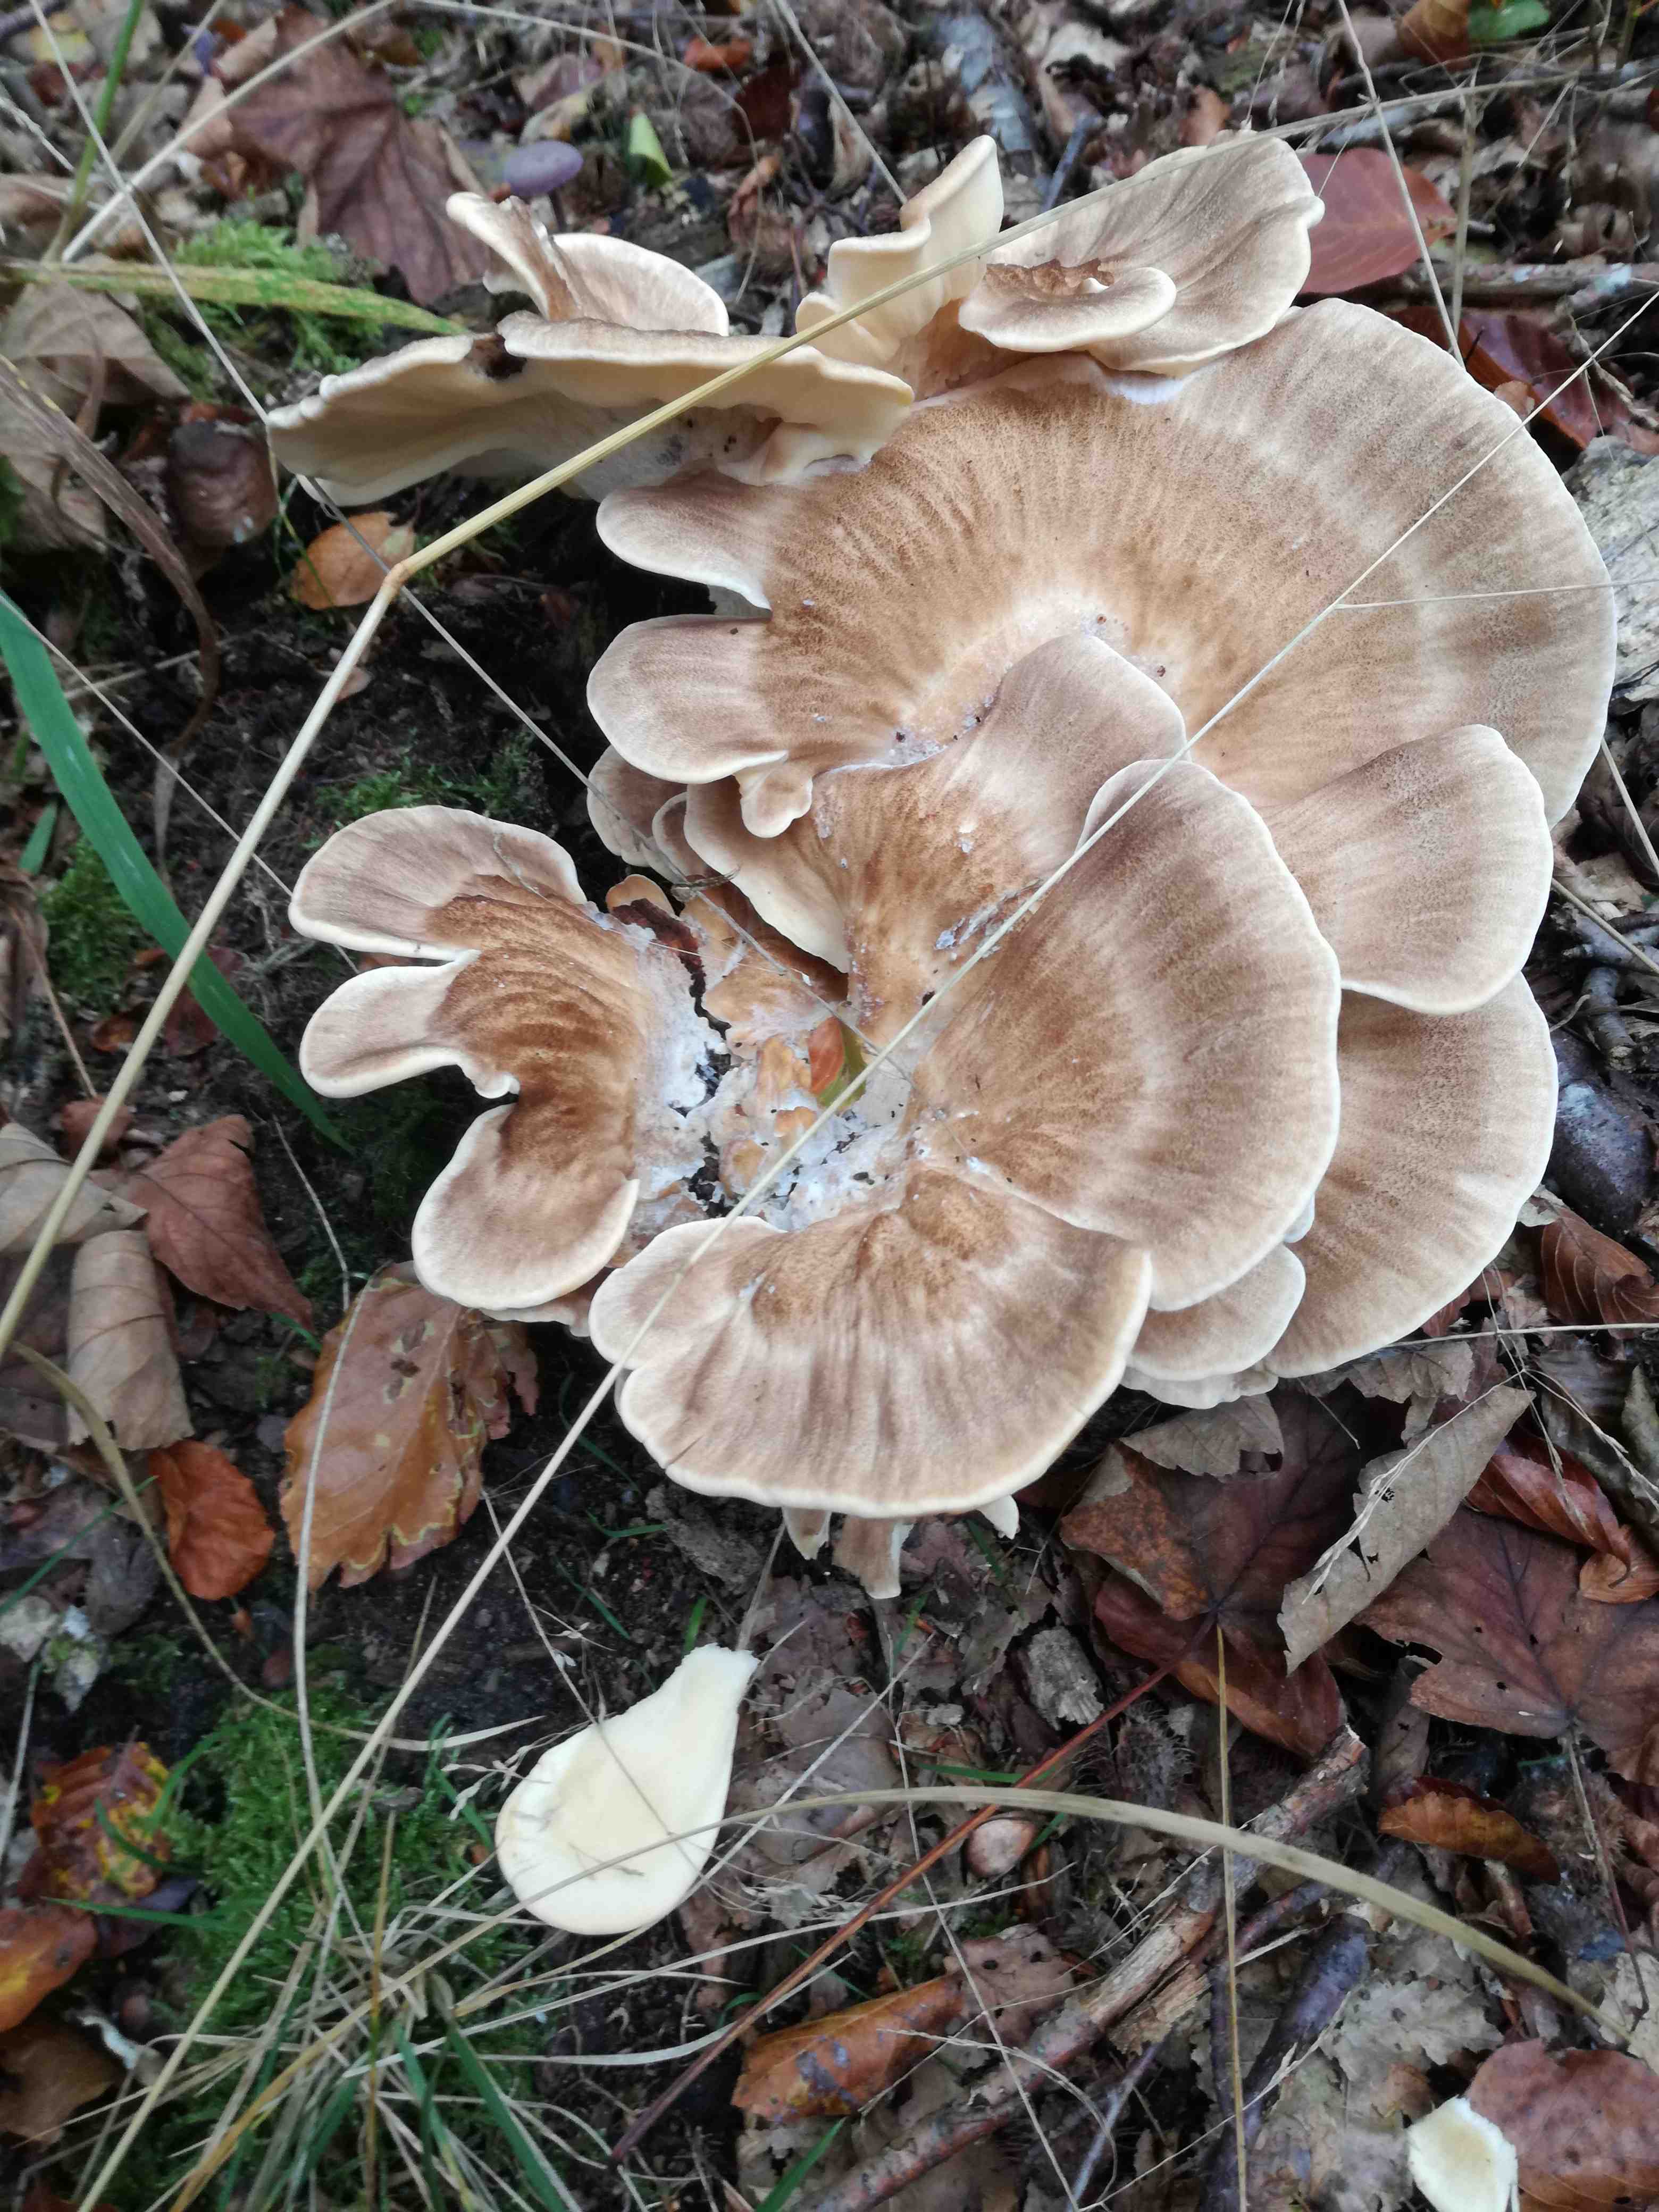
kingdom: Fungi
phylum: Basidiomycota
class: Agaricomycetes
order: Polyporales
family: Meripilaceae
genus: Meripilus
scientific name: Meripilus giganteus
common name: kæmpeporesvamp
